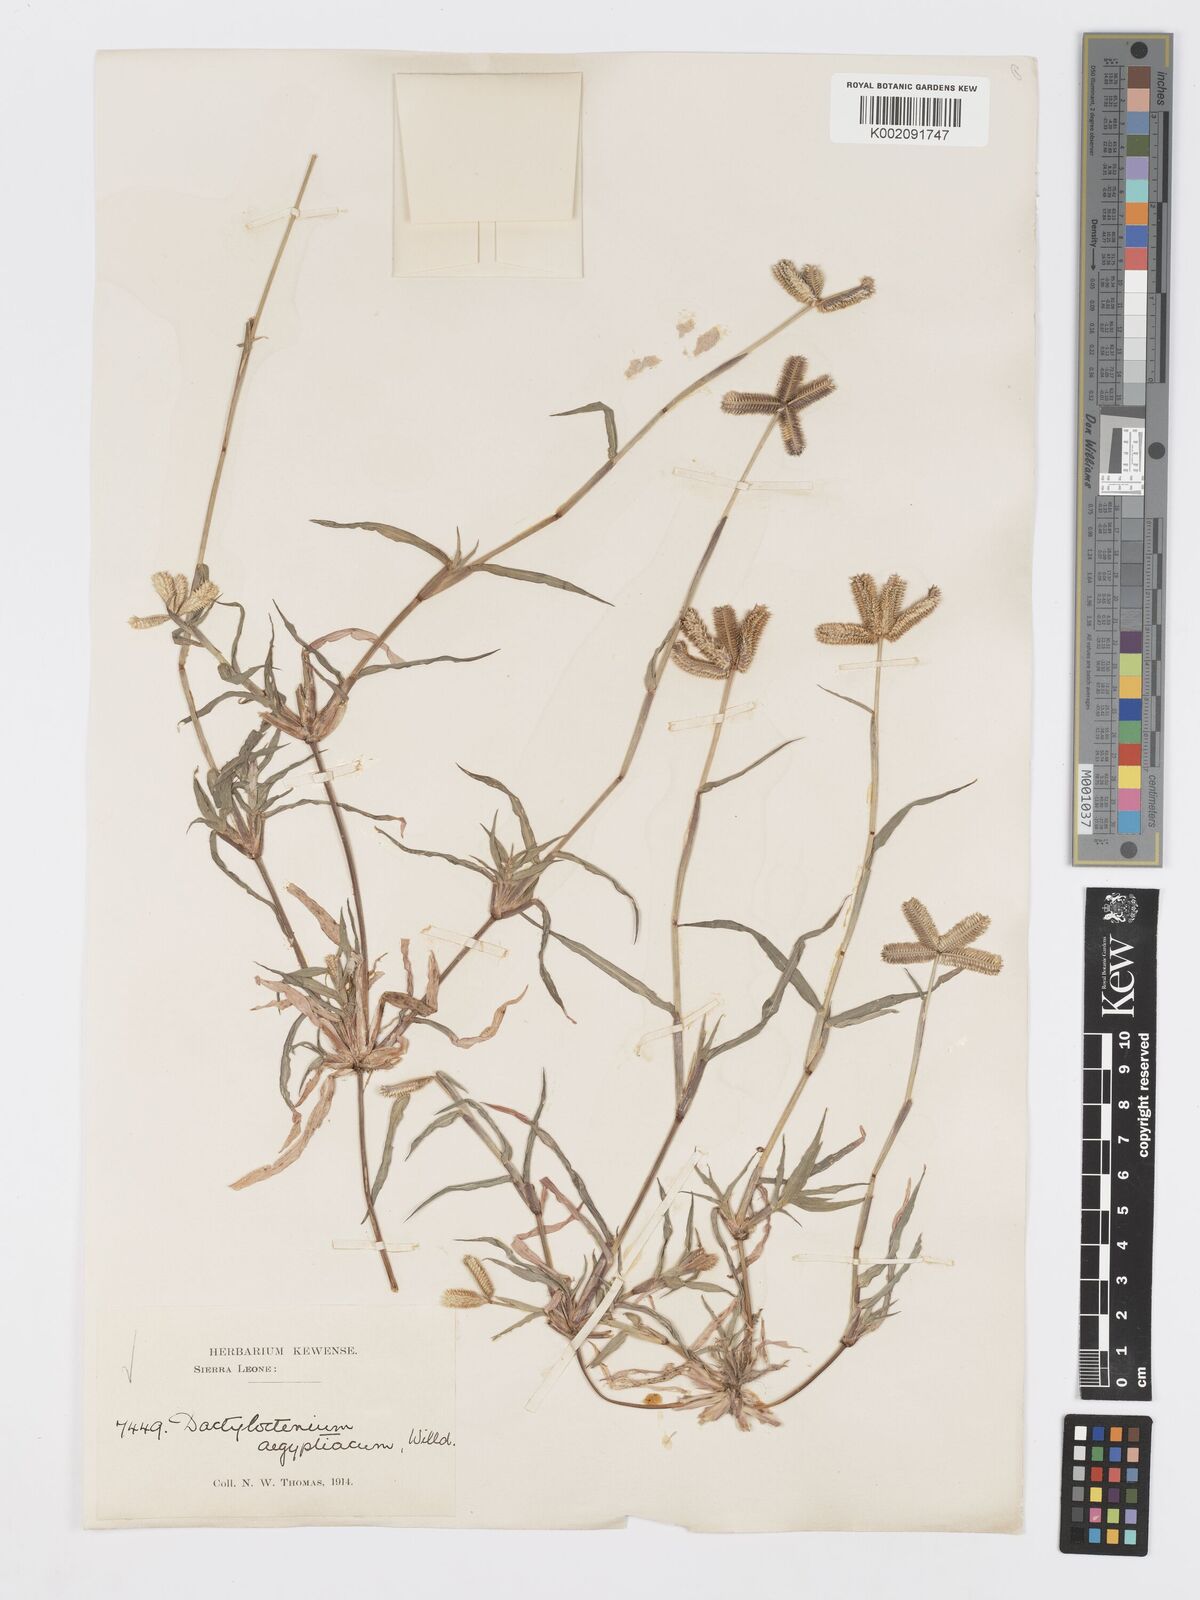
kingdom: Plantae
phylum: Tracheophyta
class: Liliopsida
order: Poales
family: Poaceae
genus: Dactyloctenium
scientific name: Dactyloctenium aegyptium
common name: Egyptian grass
